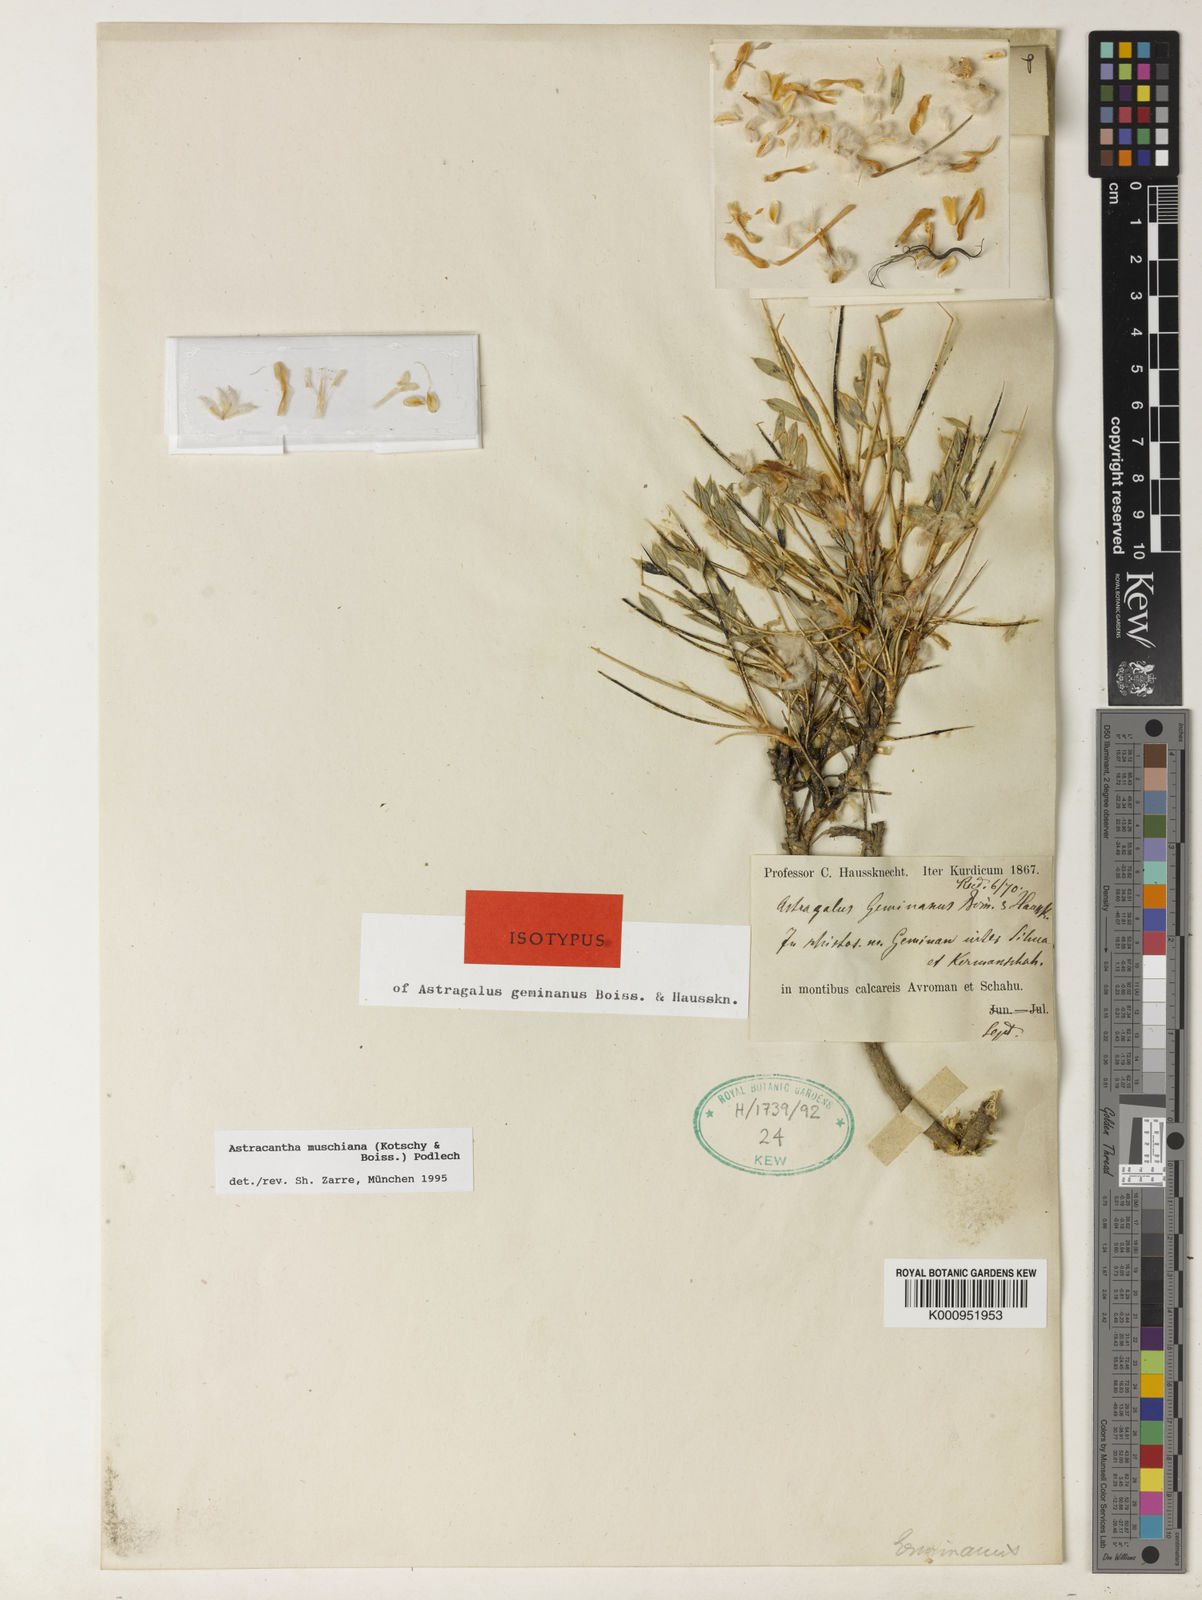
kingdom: Plantae
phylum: Tracheophyta
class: Magnoliopsida
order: Fabales
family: Fabaceae
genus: Astragalus
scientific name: Astragalus muschianus
